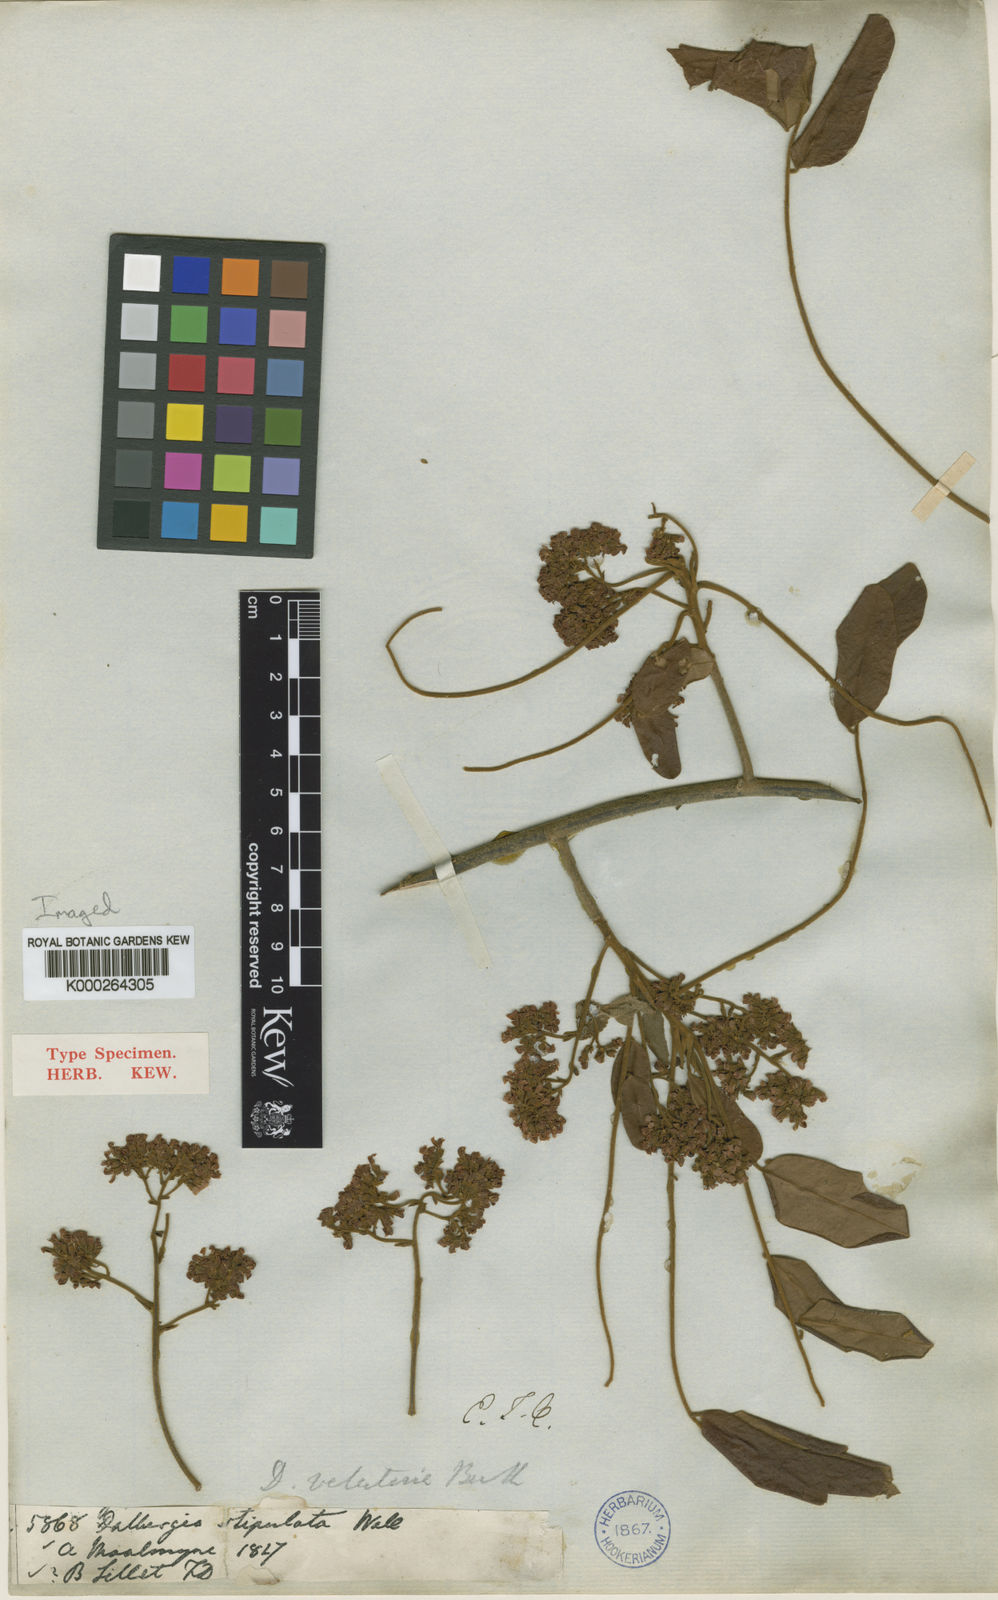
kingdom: Plantae
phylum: Tracheophyta
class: Magnoliopsida
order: Fabales
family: Fabaceae
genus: Dalbergia
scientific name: Dalbergia
